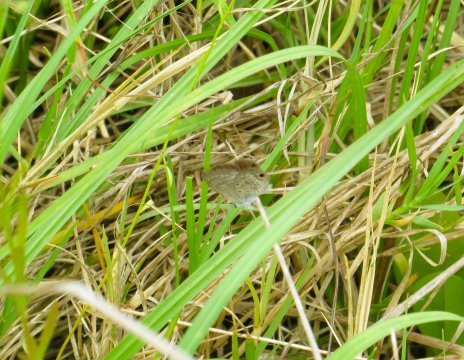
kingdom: Animalia
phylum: Arthropoda
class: Insecta
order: Lepidoptera
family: Lycaenidae
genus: Hemiargus
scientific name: Hemiargus ceraunus
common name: Ceraunus Blue
